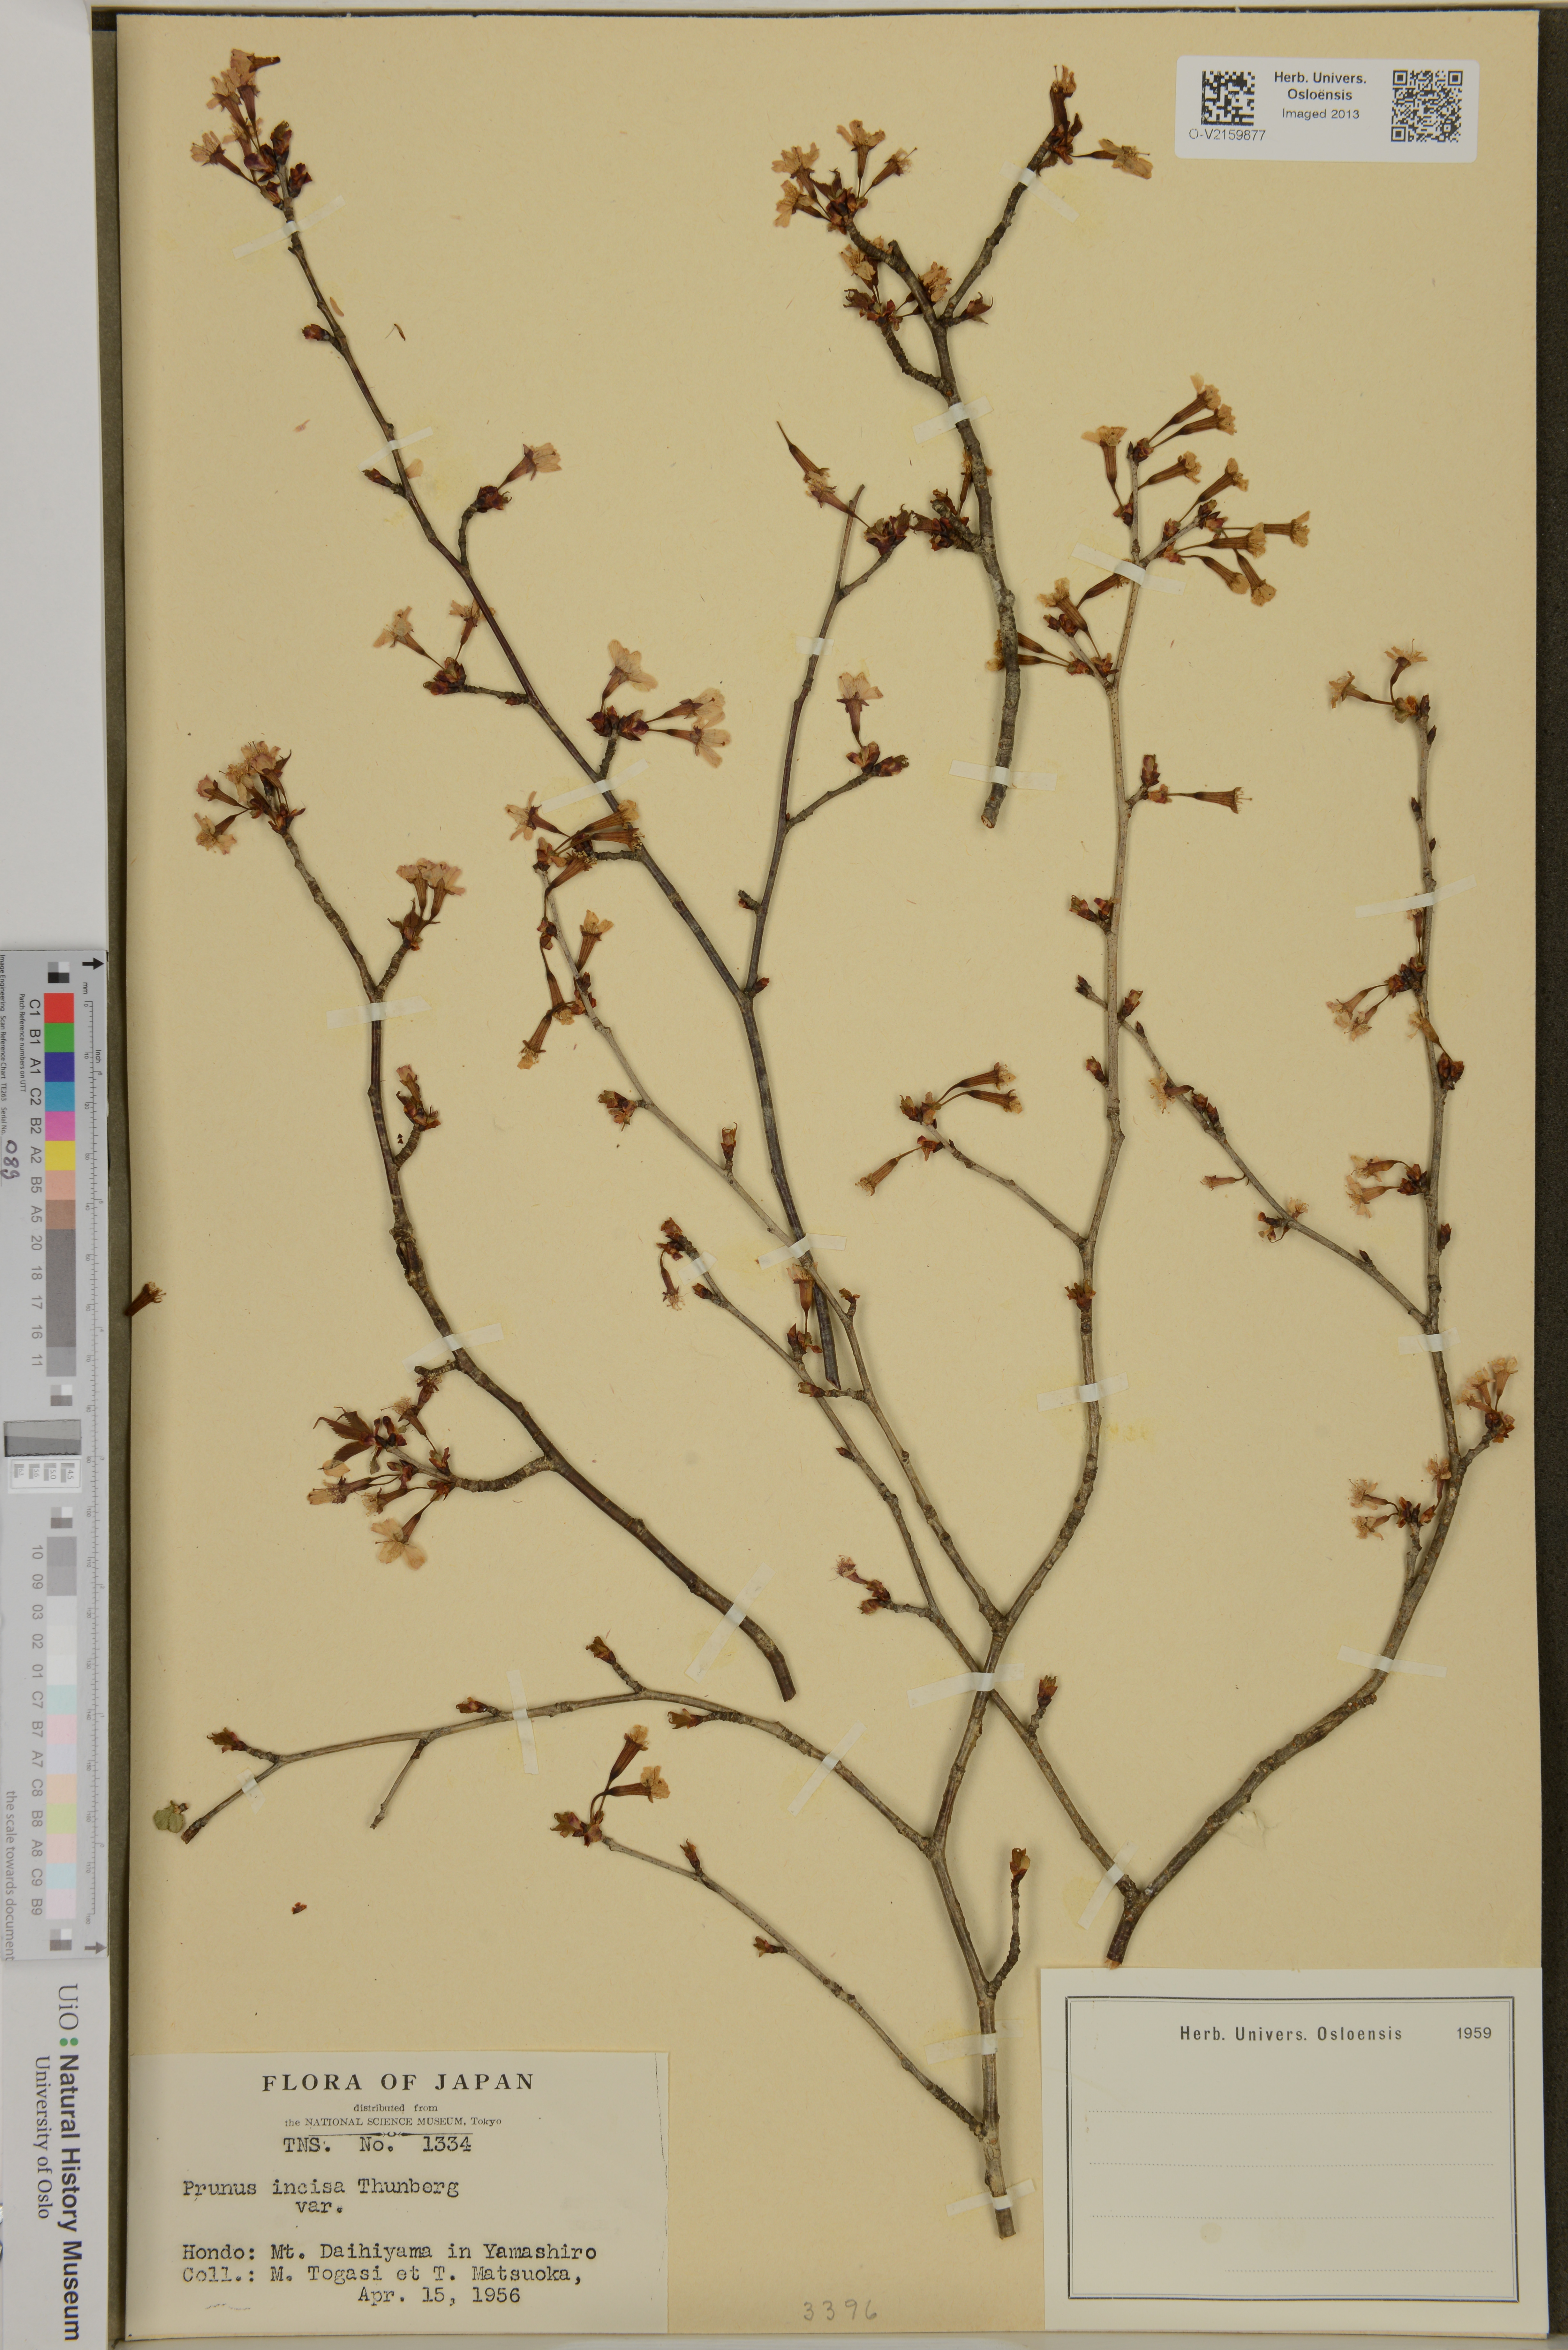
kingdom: Plantae
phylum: Tracheophyta
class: Magnoliopsida
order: Rosales
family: Rosaceae
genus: Prunus
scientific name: Prunus incisa
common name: Fuji cherry
